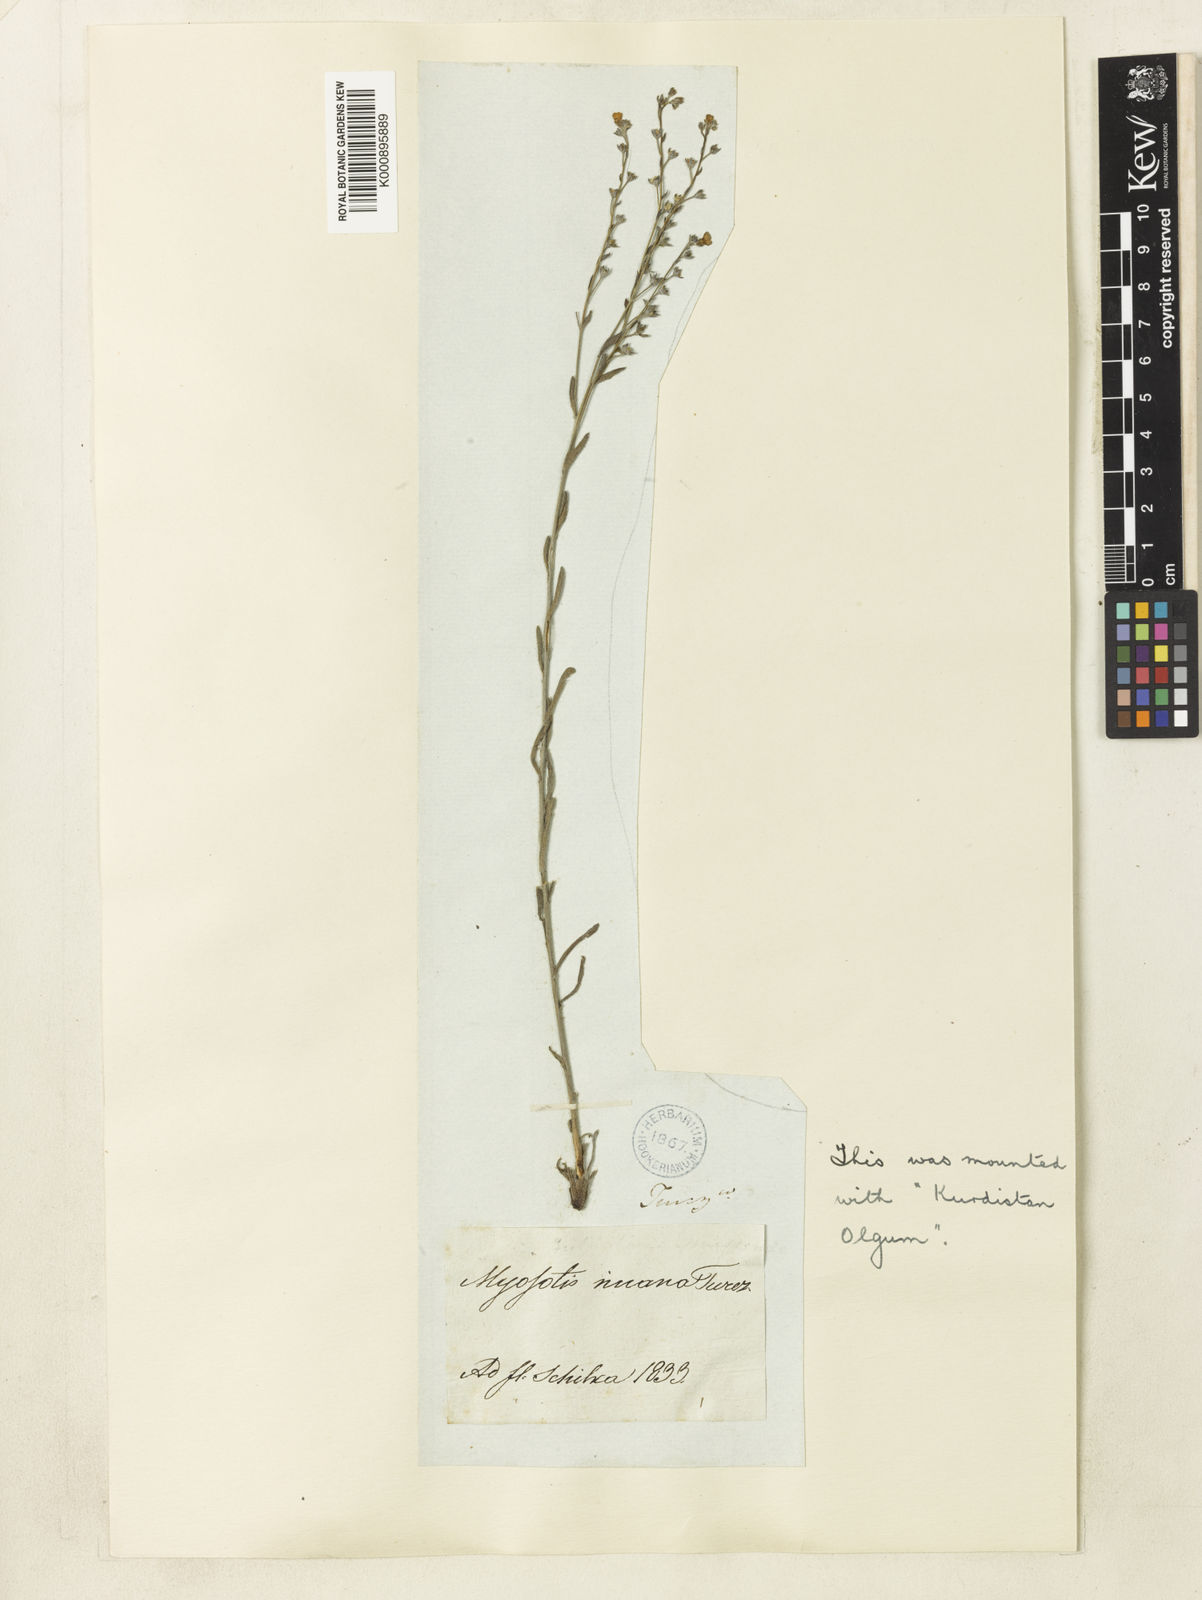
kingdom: Plantae
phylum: Tracheophyta
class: Magnoliopsida
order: Boraginales
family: Boraginaceae
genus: Eritrichium
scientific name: Eritrichium rupestre
